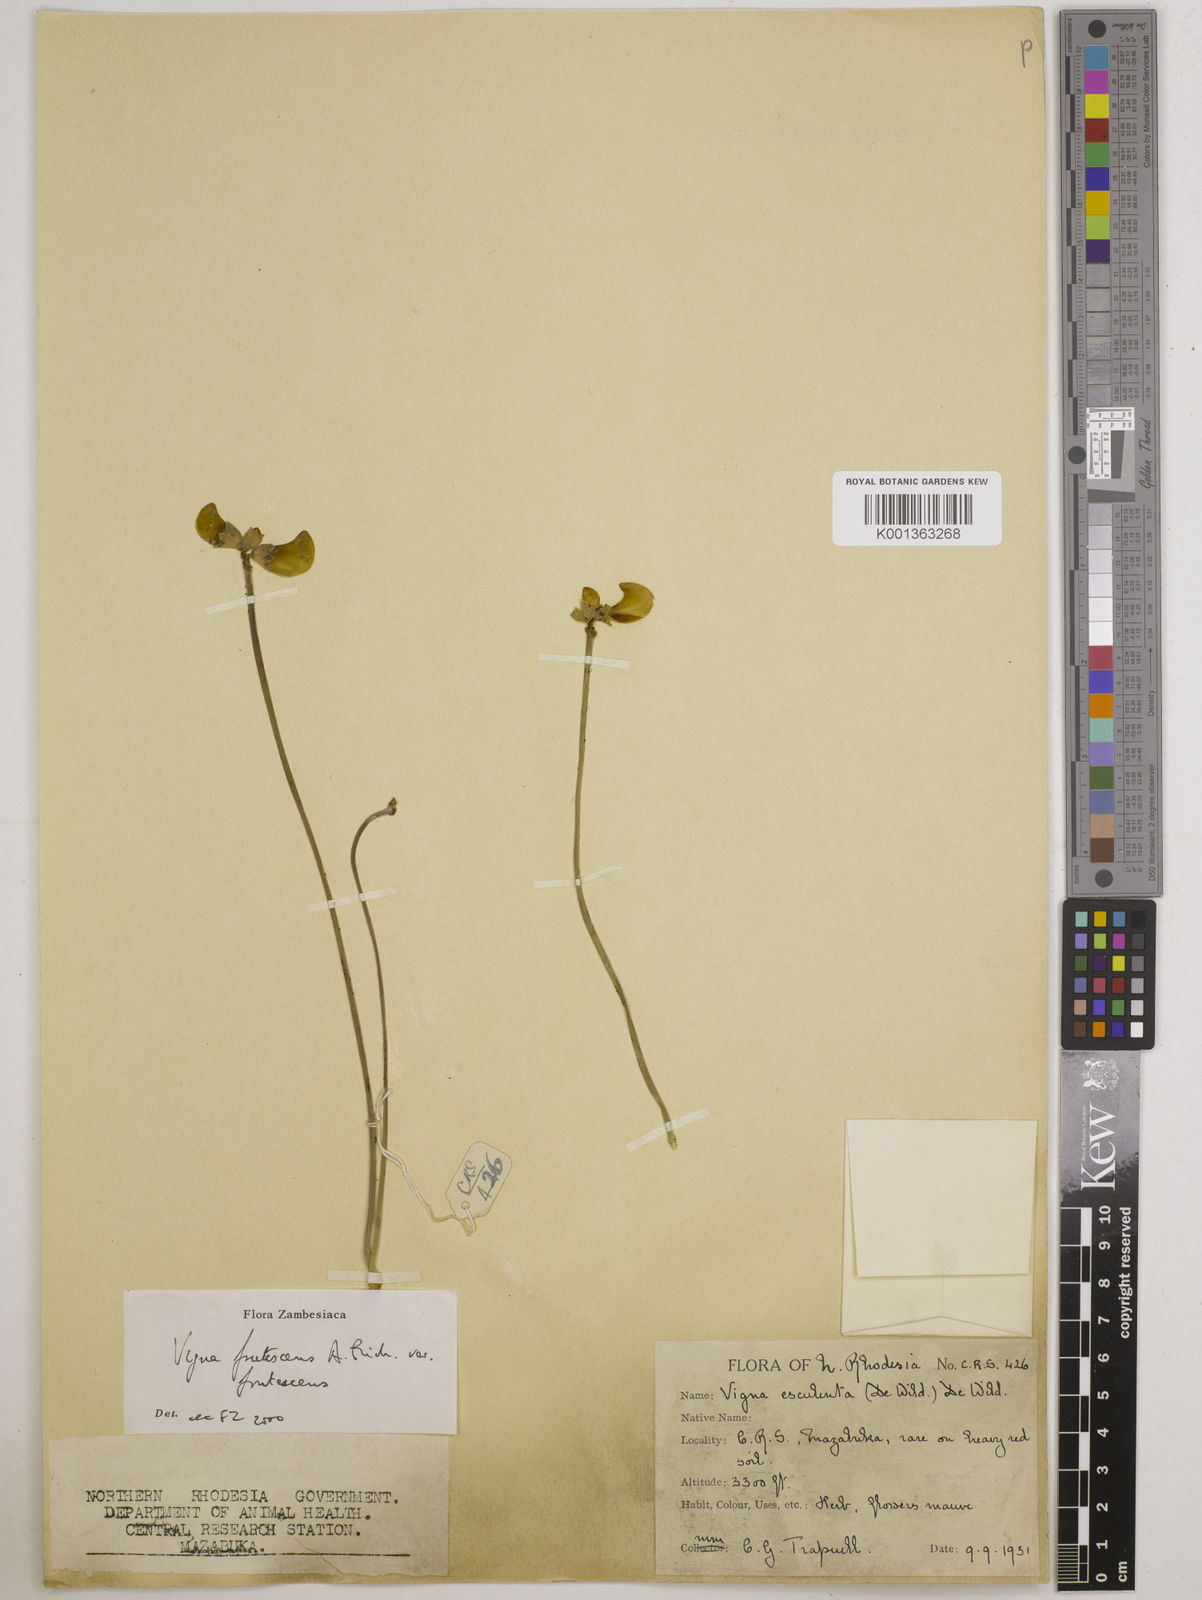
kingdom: Plantae
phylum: Tracheophyta
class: Magnoliopsida
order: Fabales
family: Fabaceae
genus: Vigna
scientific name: Vigna
